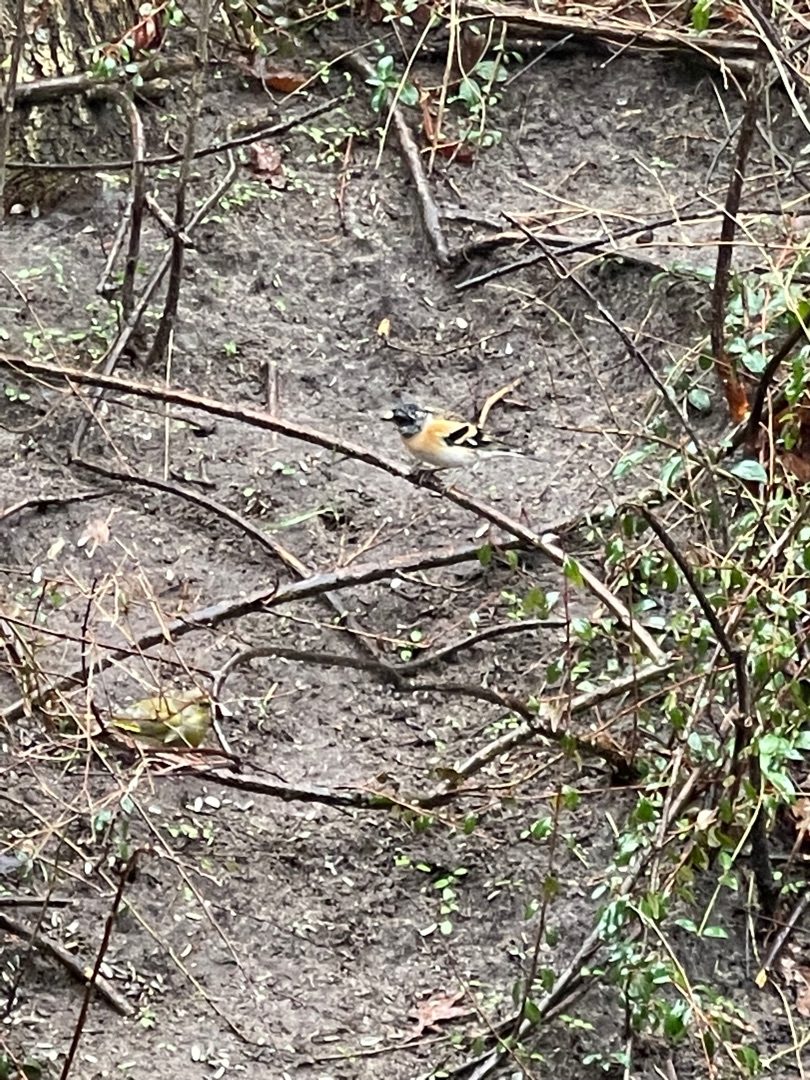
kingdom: Animalia
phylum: Chordata
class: Aves
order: Passeriformes
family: Fringillidae
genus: Fringilla
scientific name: Fringilla montifringilla
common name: Kvækerfinke
